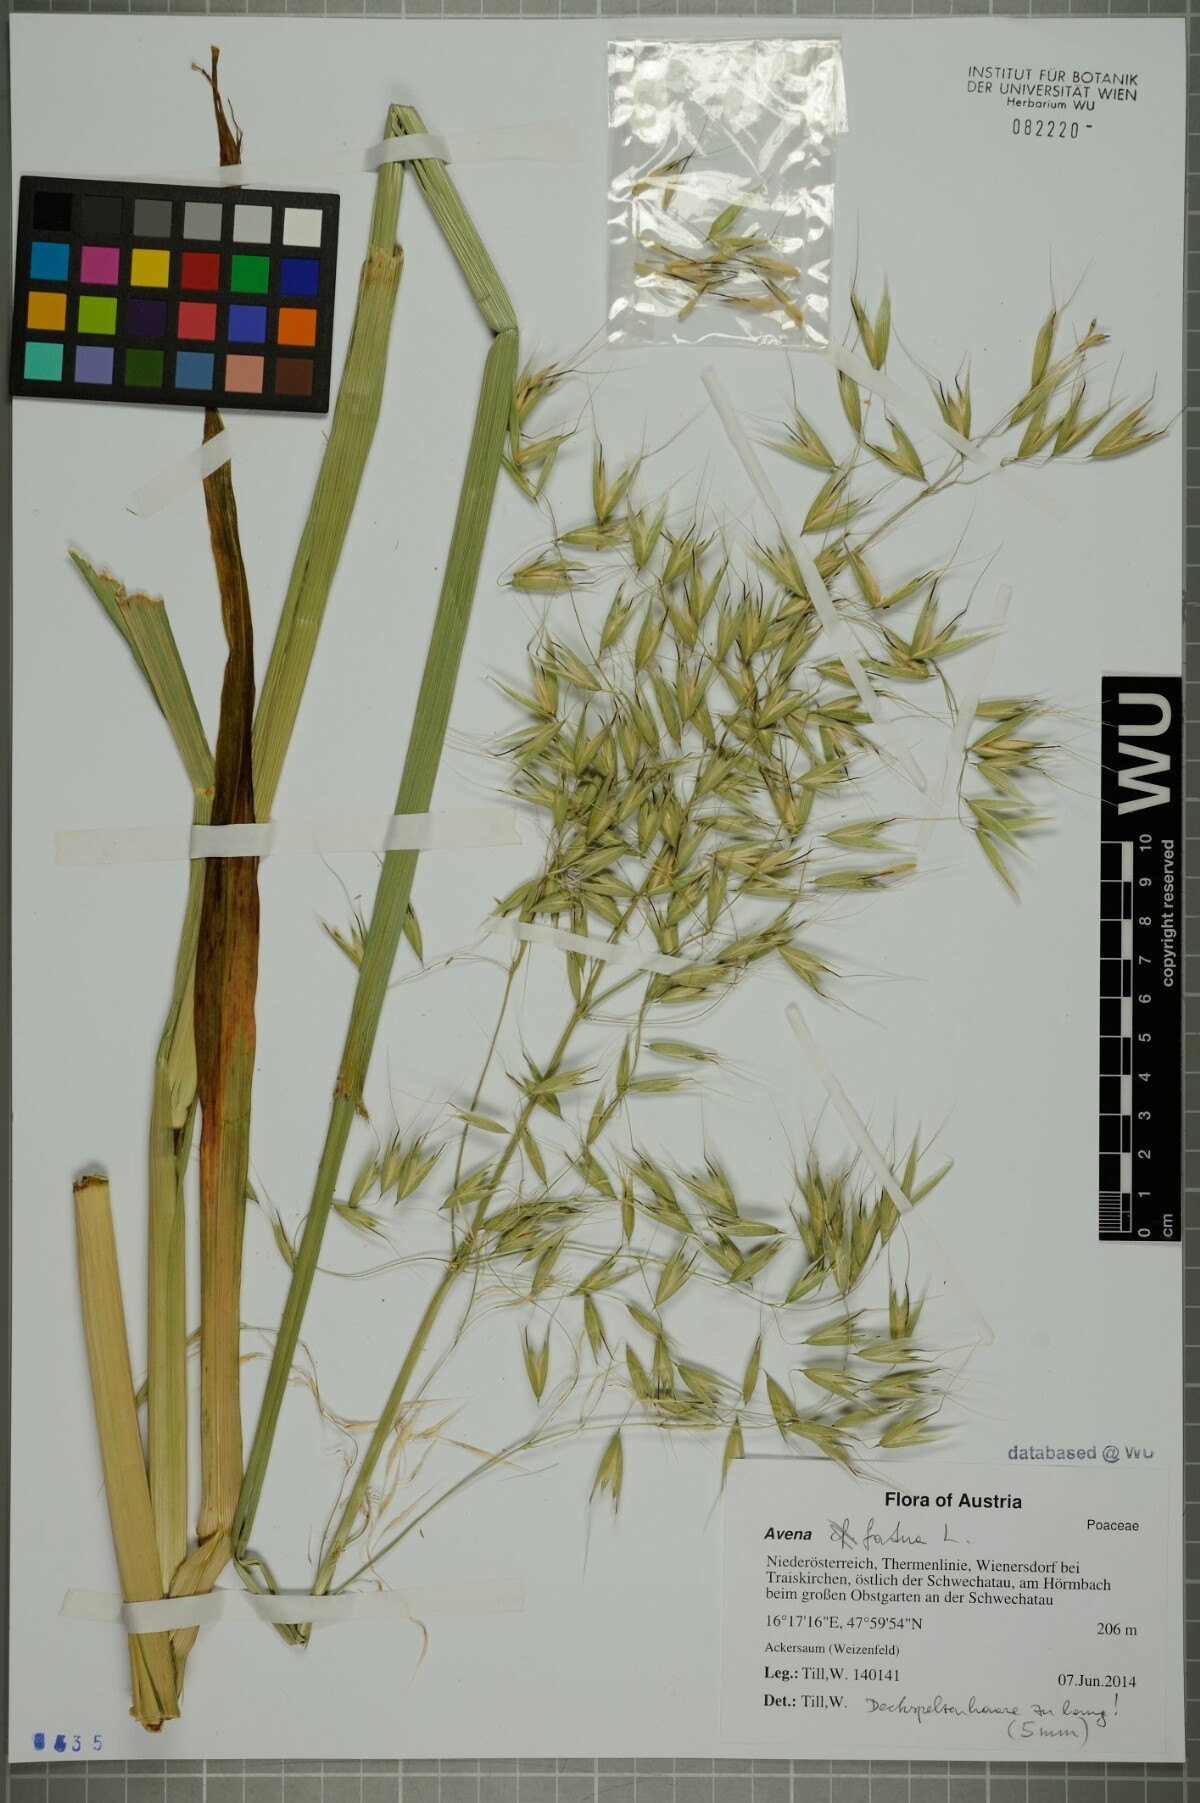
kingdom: Plantae
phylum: Tracheophyta
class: Liliopsida
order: Poales
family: Poaceae
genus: Avena
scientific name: Avena fatua
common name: Wild oat
